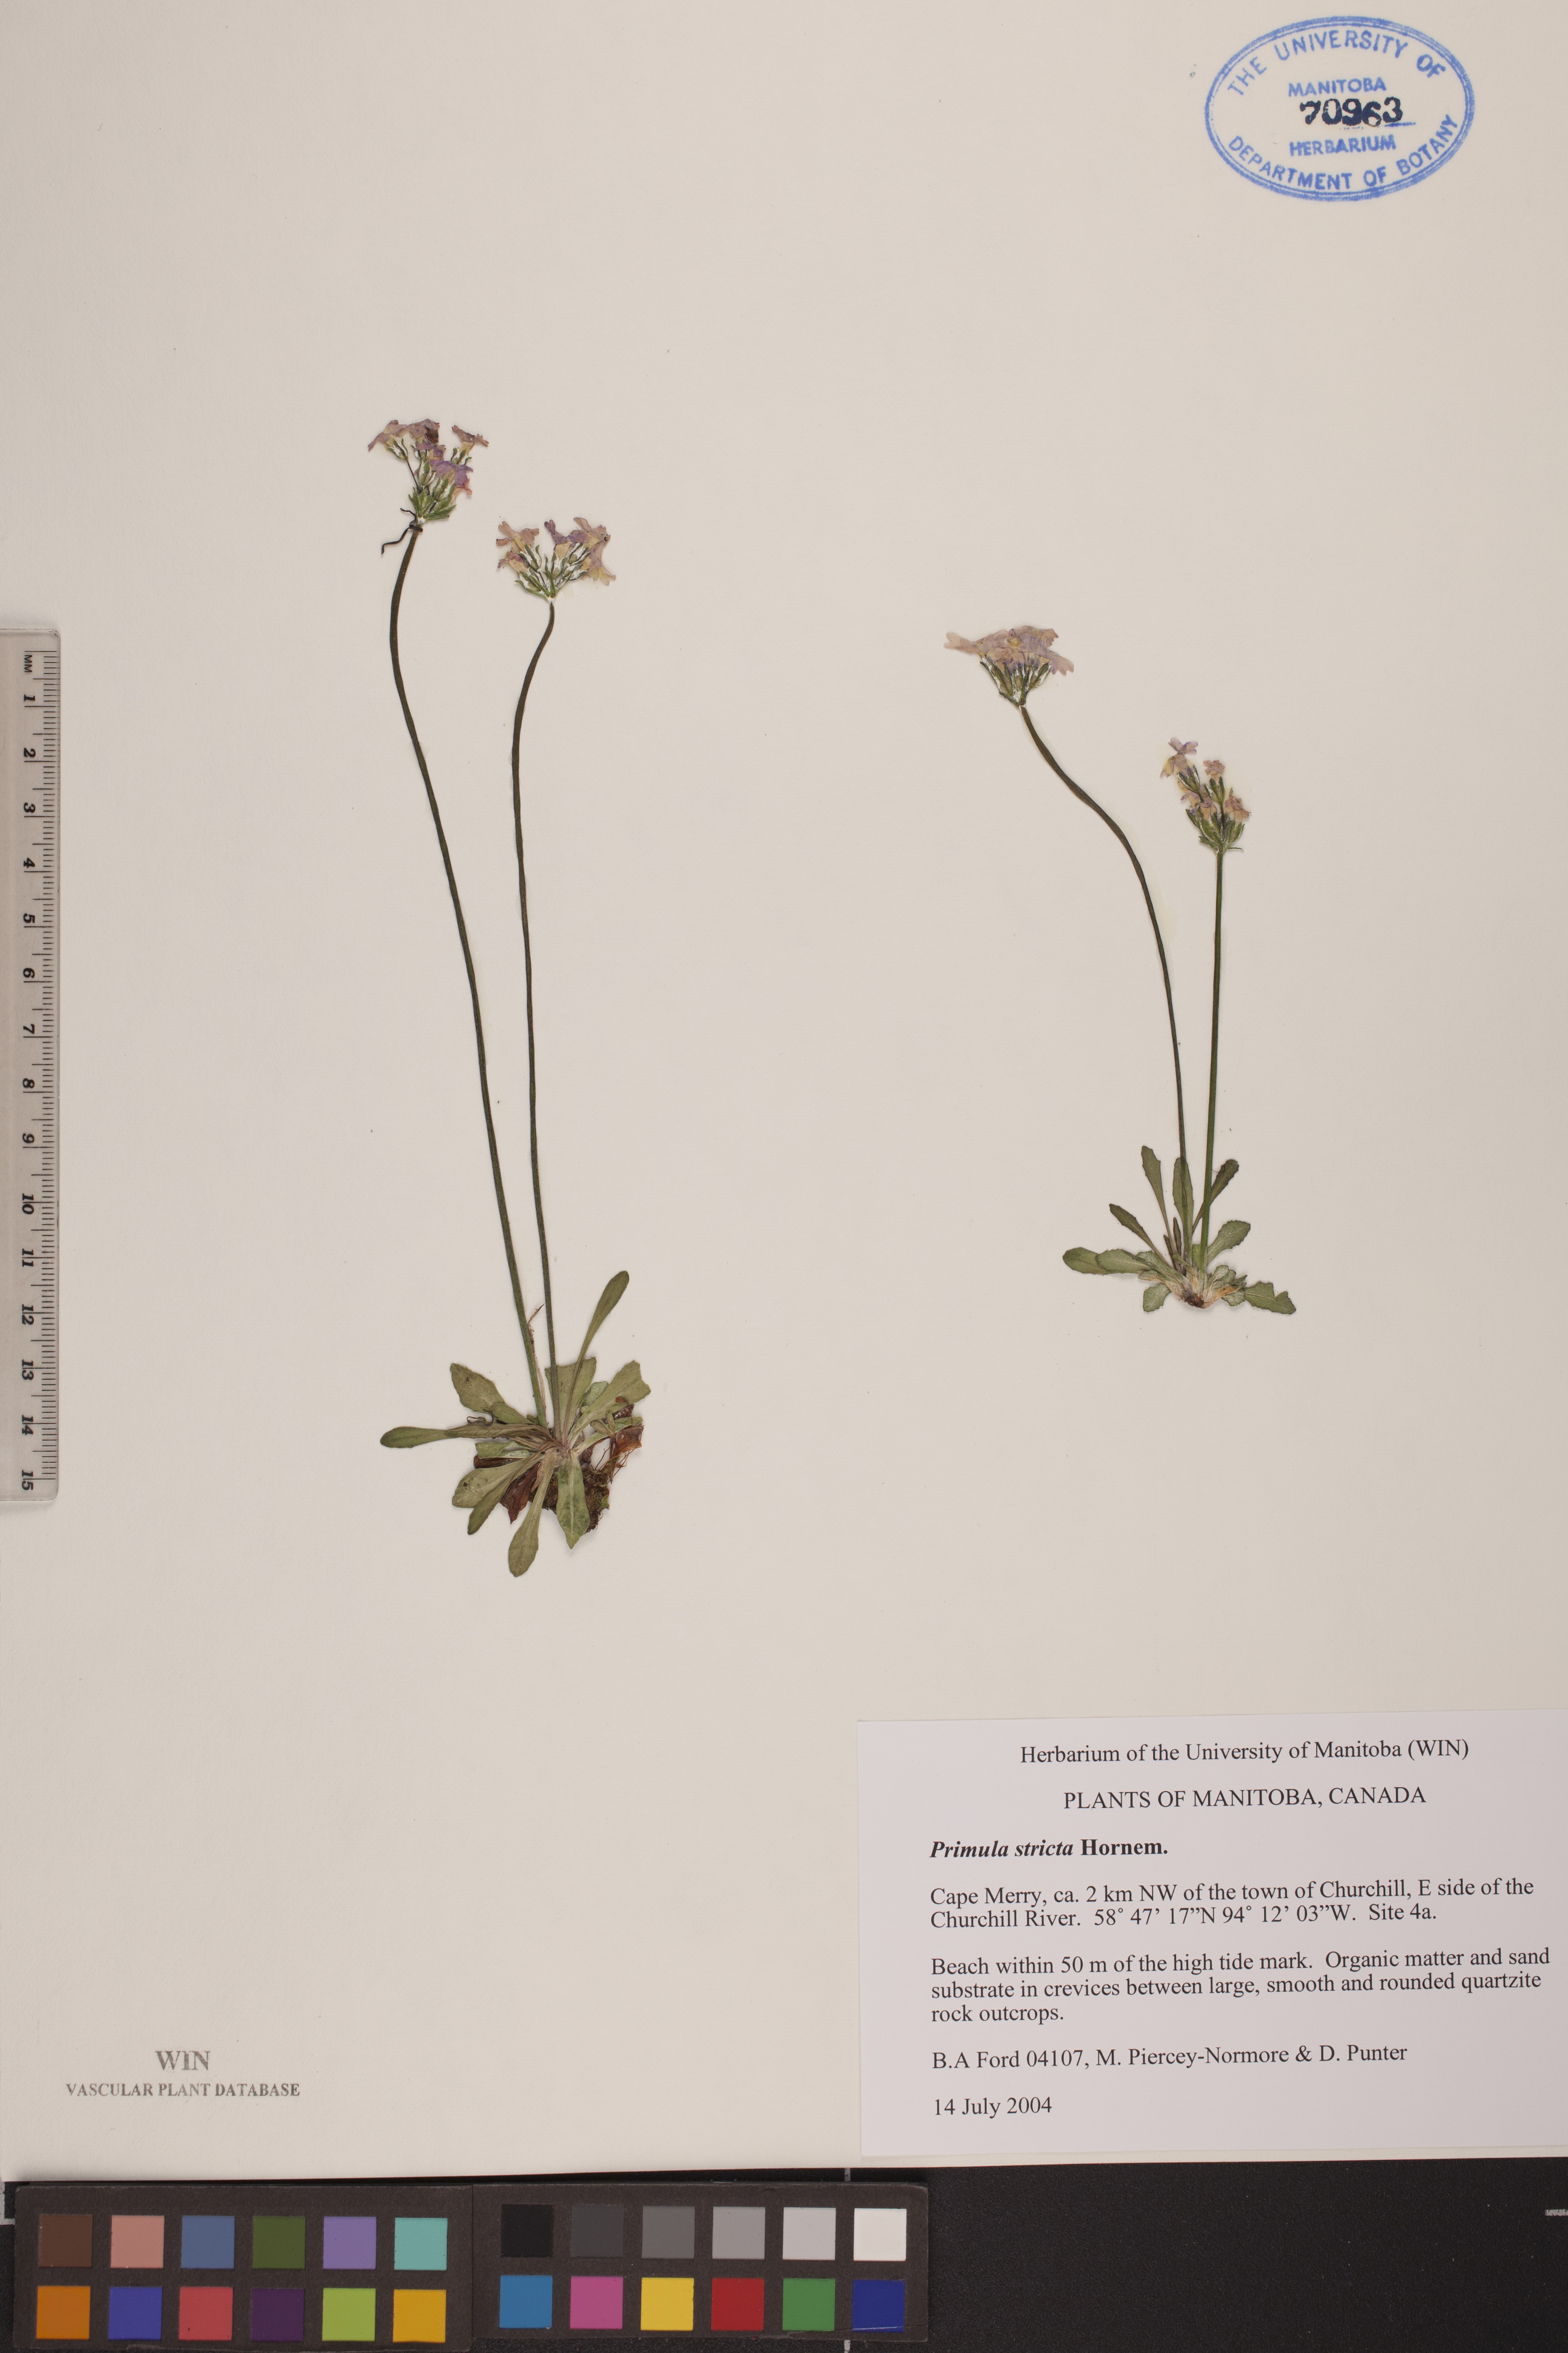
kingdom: Plantae
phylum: Tracheophyta
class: Magnoliopsida
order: Ericales
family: Primulaceae
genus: Primula
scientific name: Primula stricta
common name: Coastal primrose
